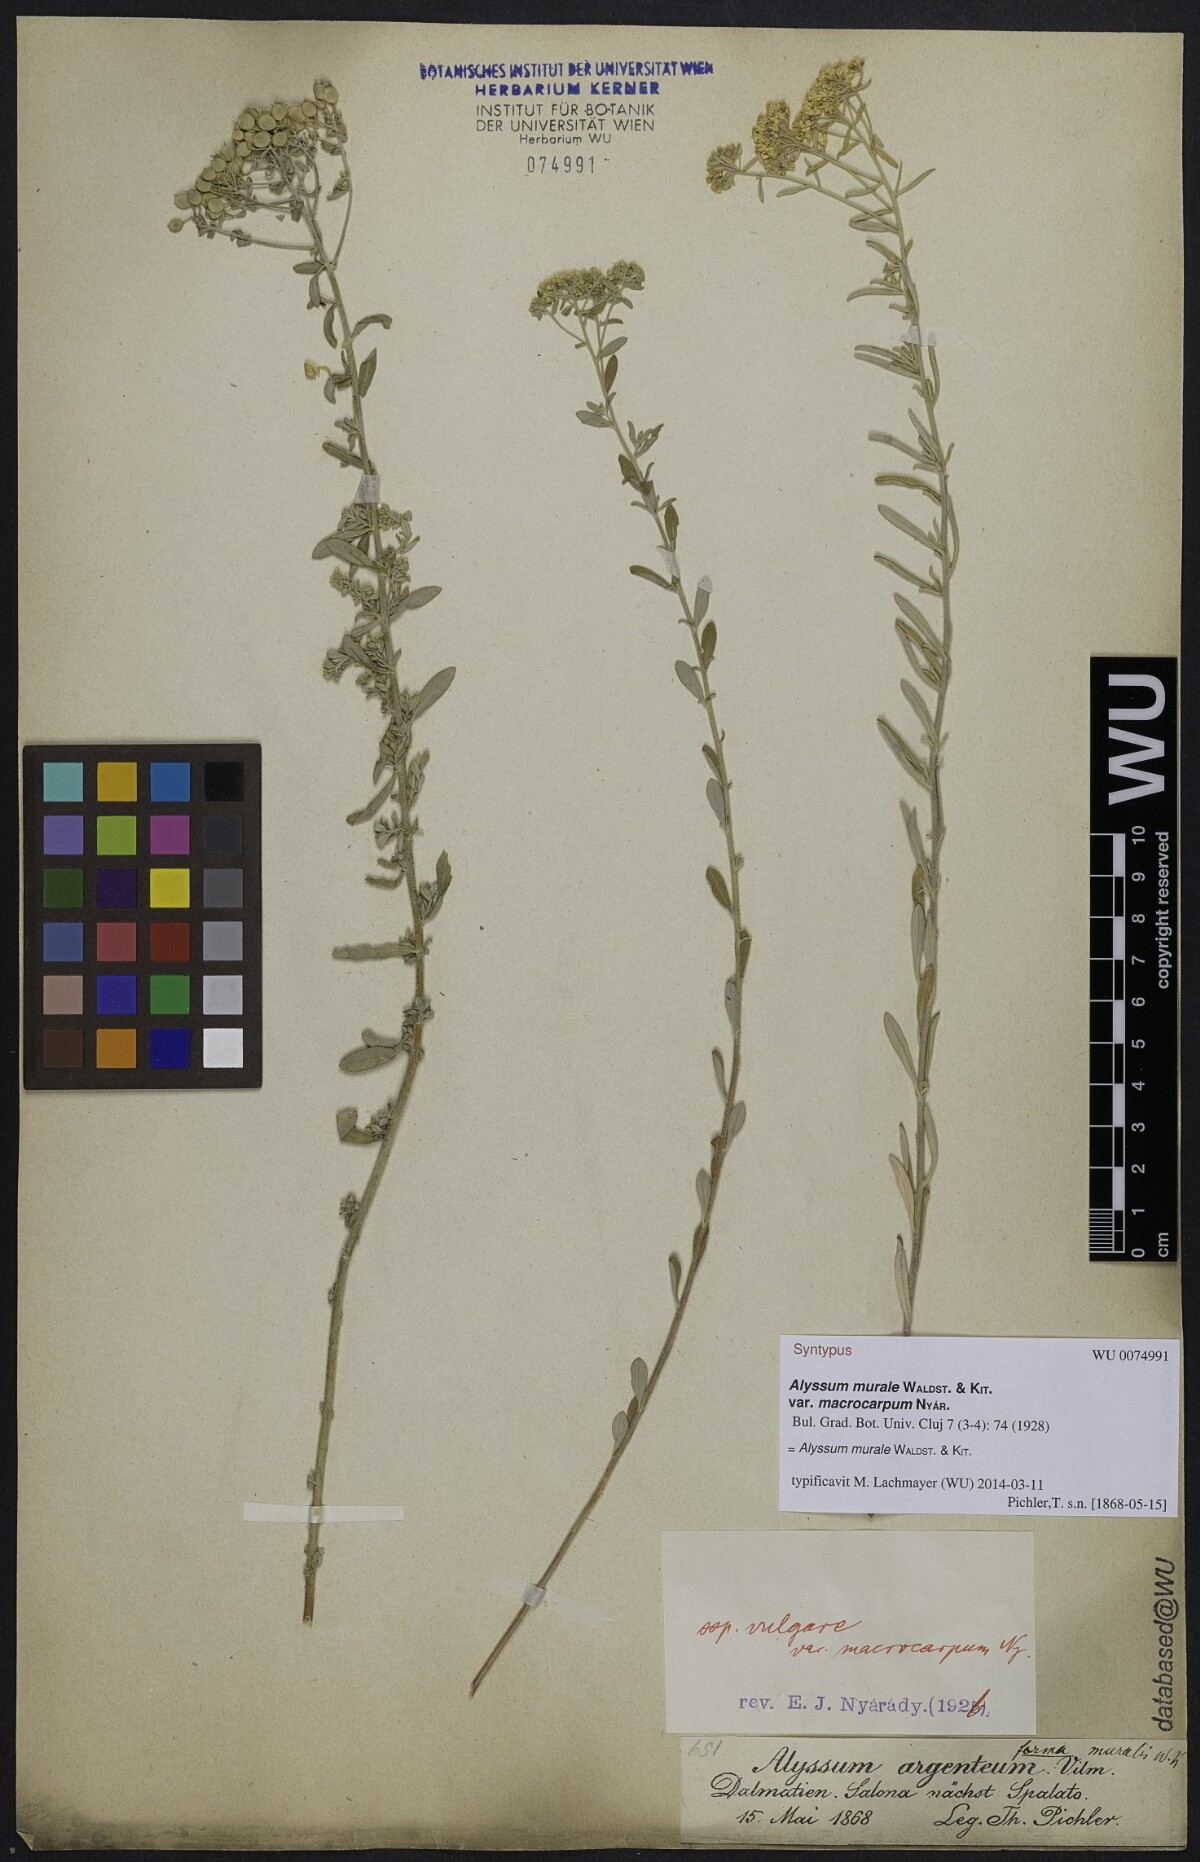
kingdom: Plantae
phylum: Tracheophyta
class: Magnoliopsida
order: Brassicales
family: Brassicaceae
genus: Odontarrhena
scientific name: Odontarrhena muralis
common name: Rock alyssum
